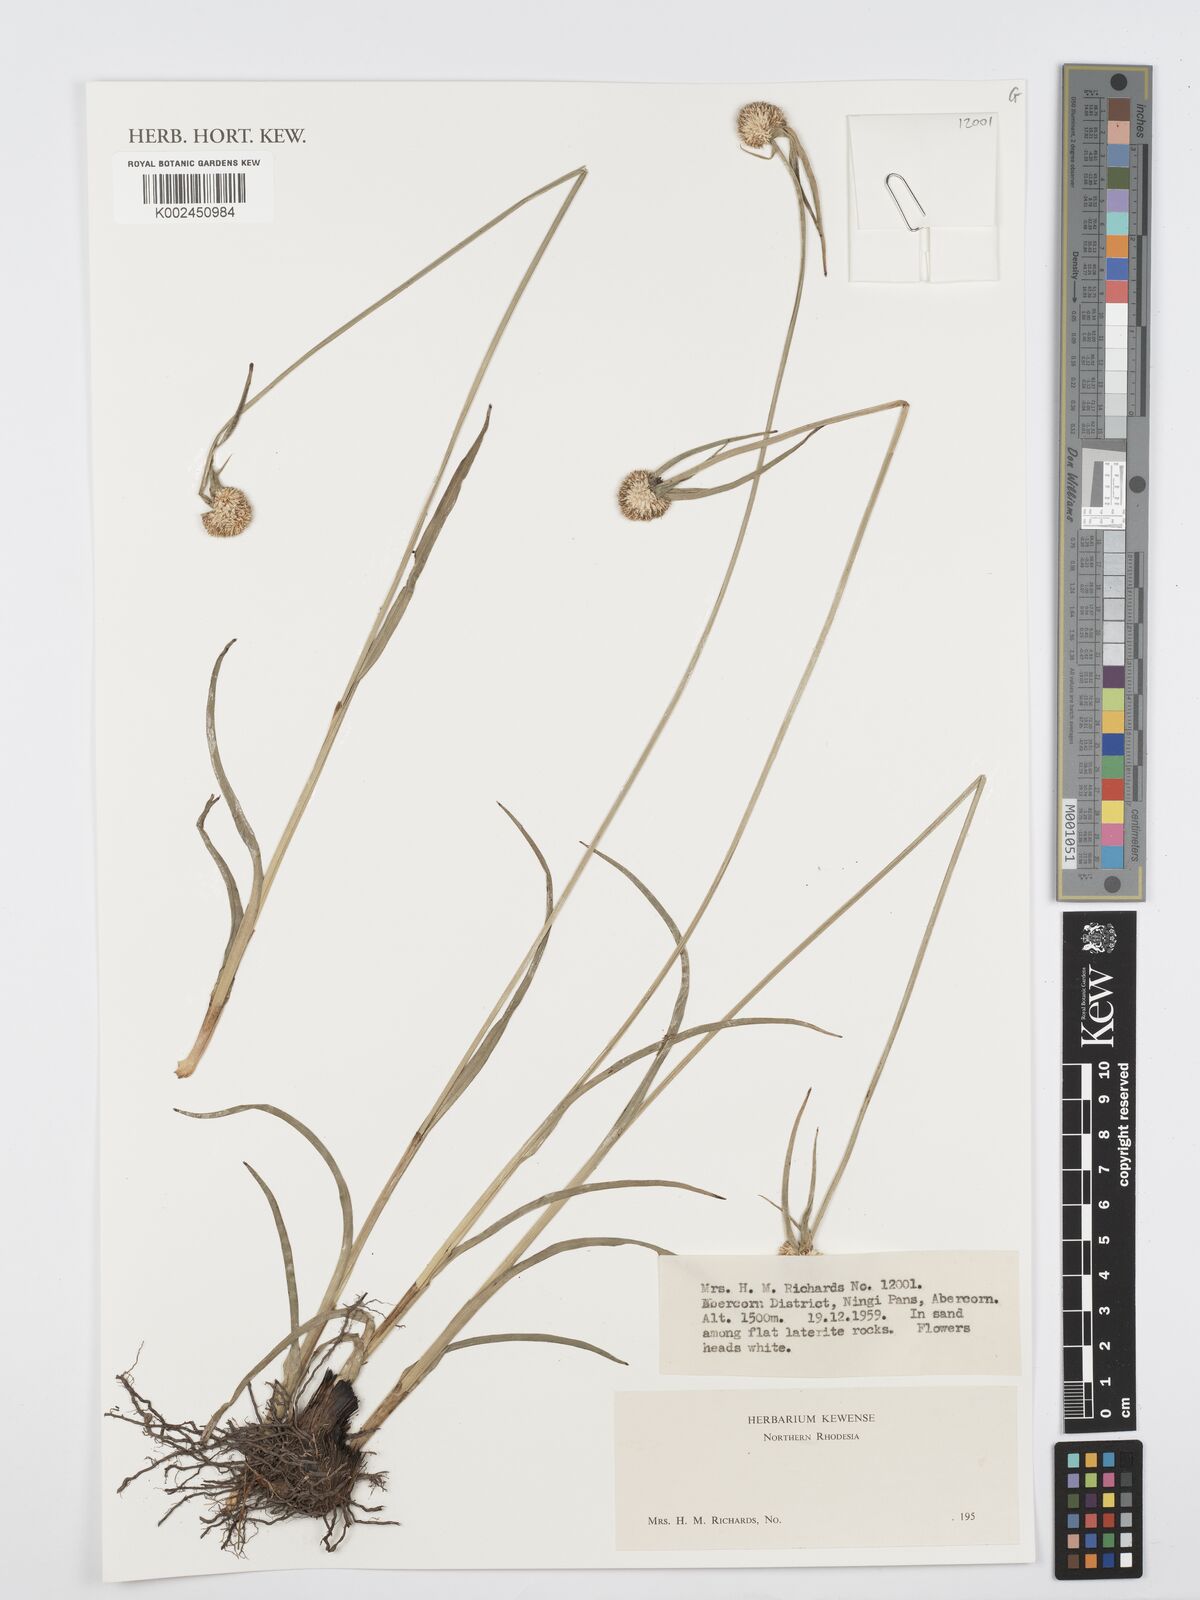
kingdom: Plantae
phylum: Tracheophyta
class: Liliopsida
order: Poales
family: Cyperaceae
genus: Cyperus
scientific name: Cyperus
